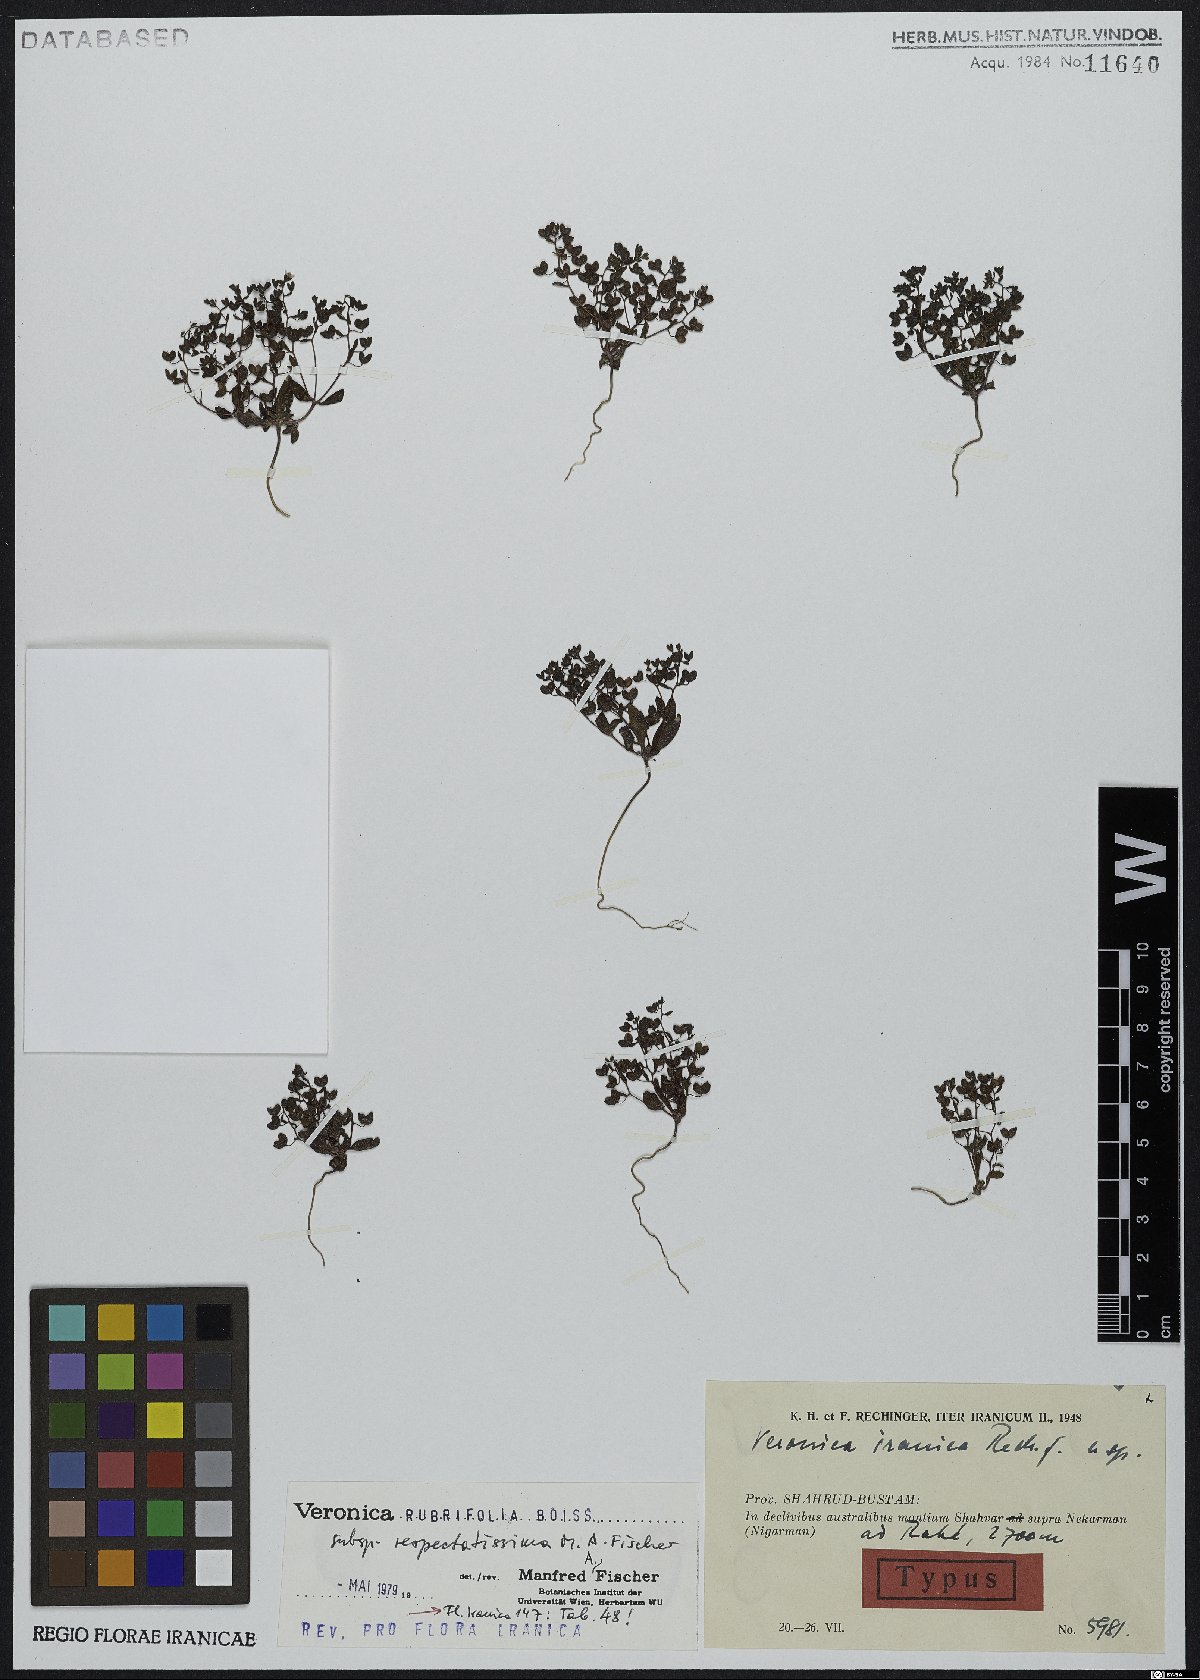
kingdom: Plantae
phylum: Tracheophyta
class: Magnoliopsida
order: Lamiales
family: Plantaginaceae
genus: Veronica
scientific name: Veronica rubrifolia
